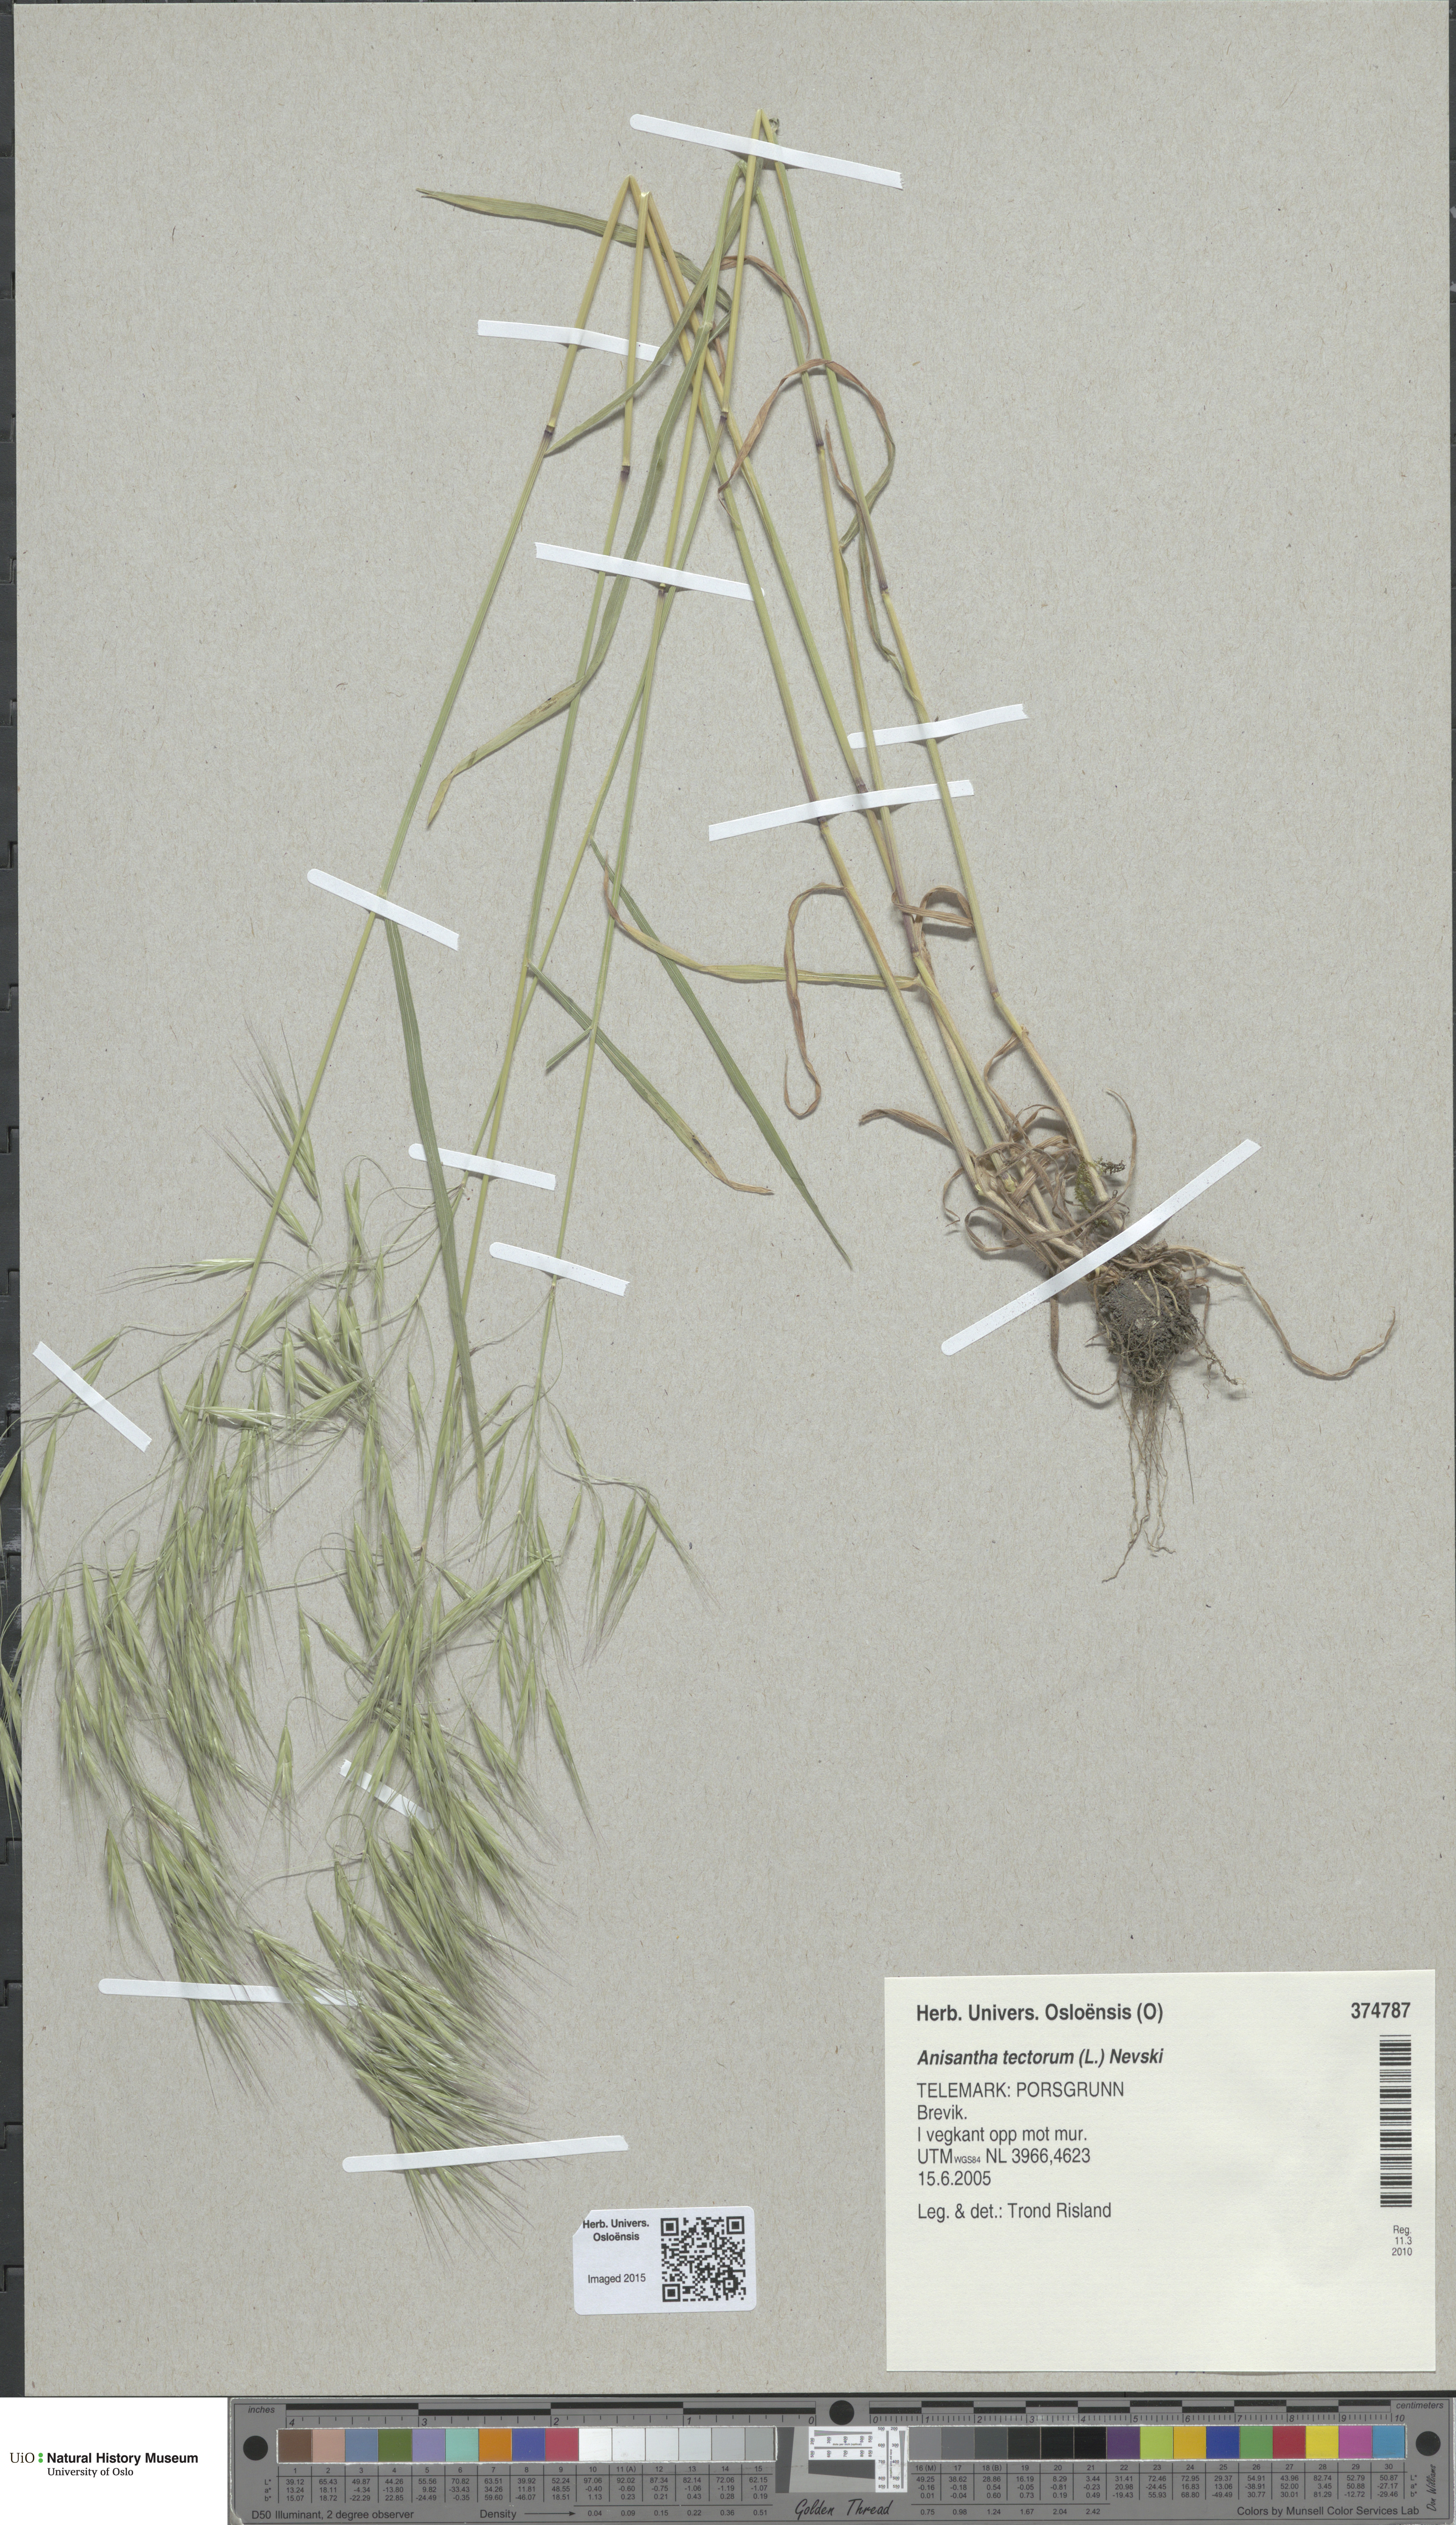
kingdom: Plantae
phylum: Tracheophyta
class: Liliopsida
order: Poales
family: Poaceae
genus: Bromus
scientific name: Bromus tectorum
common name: Cheatgrass
